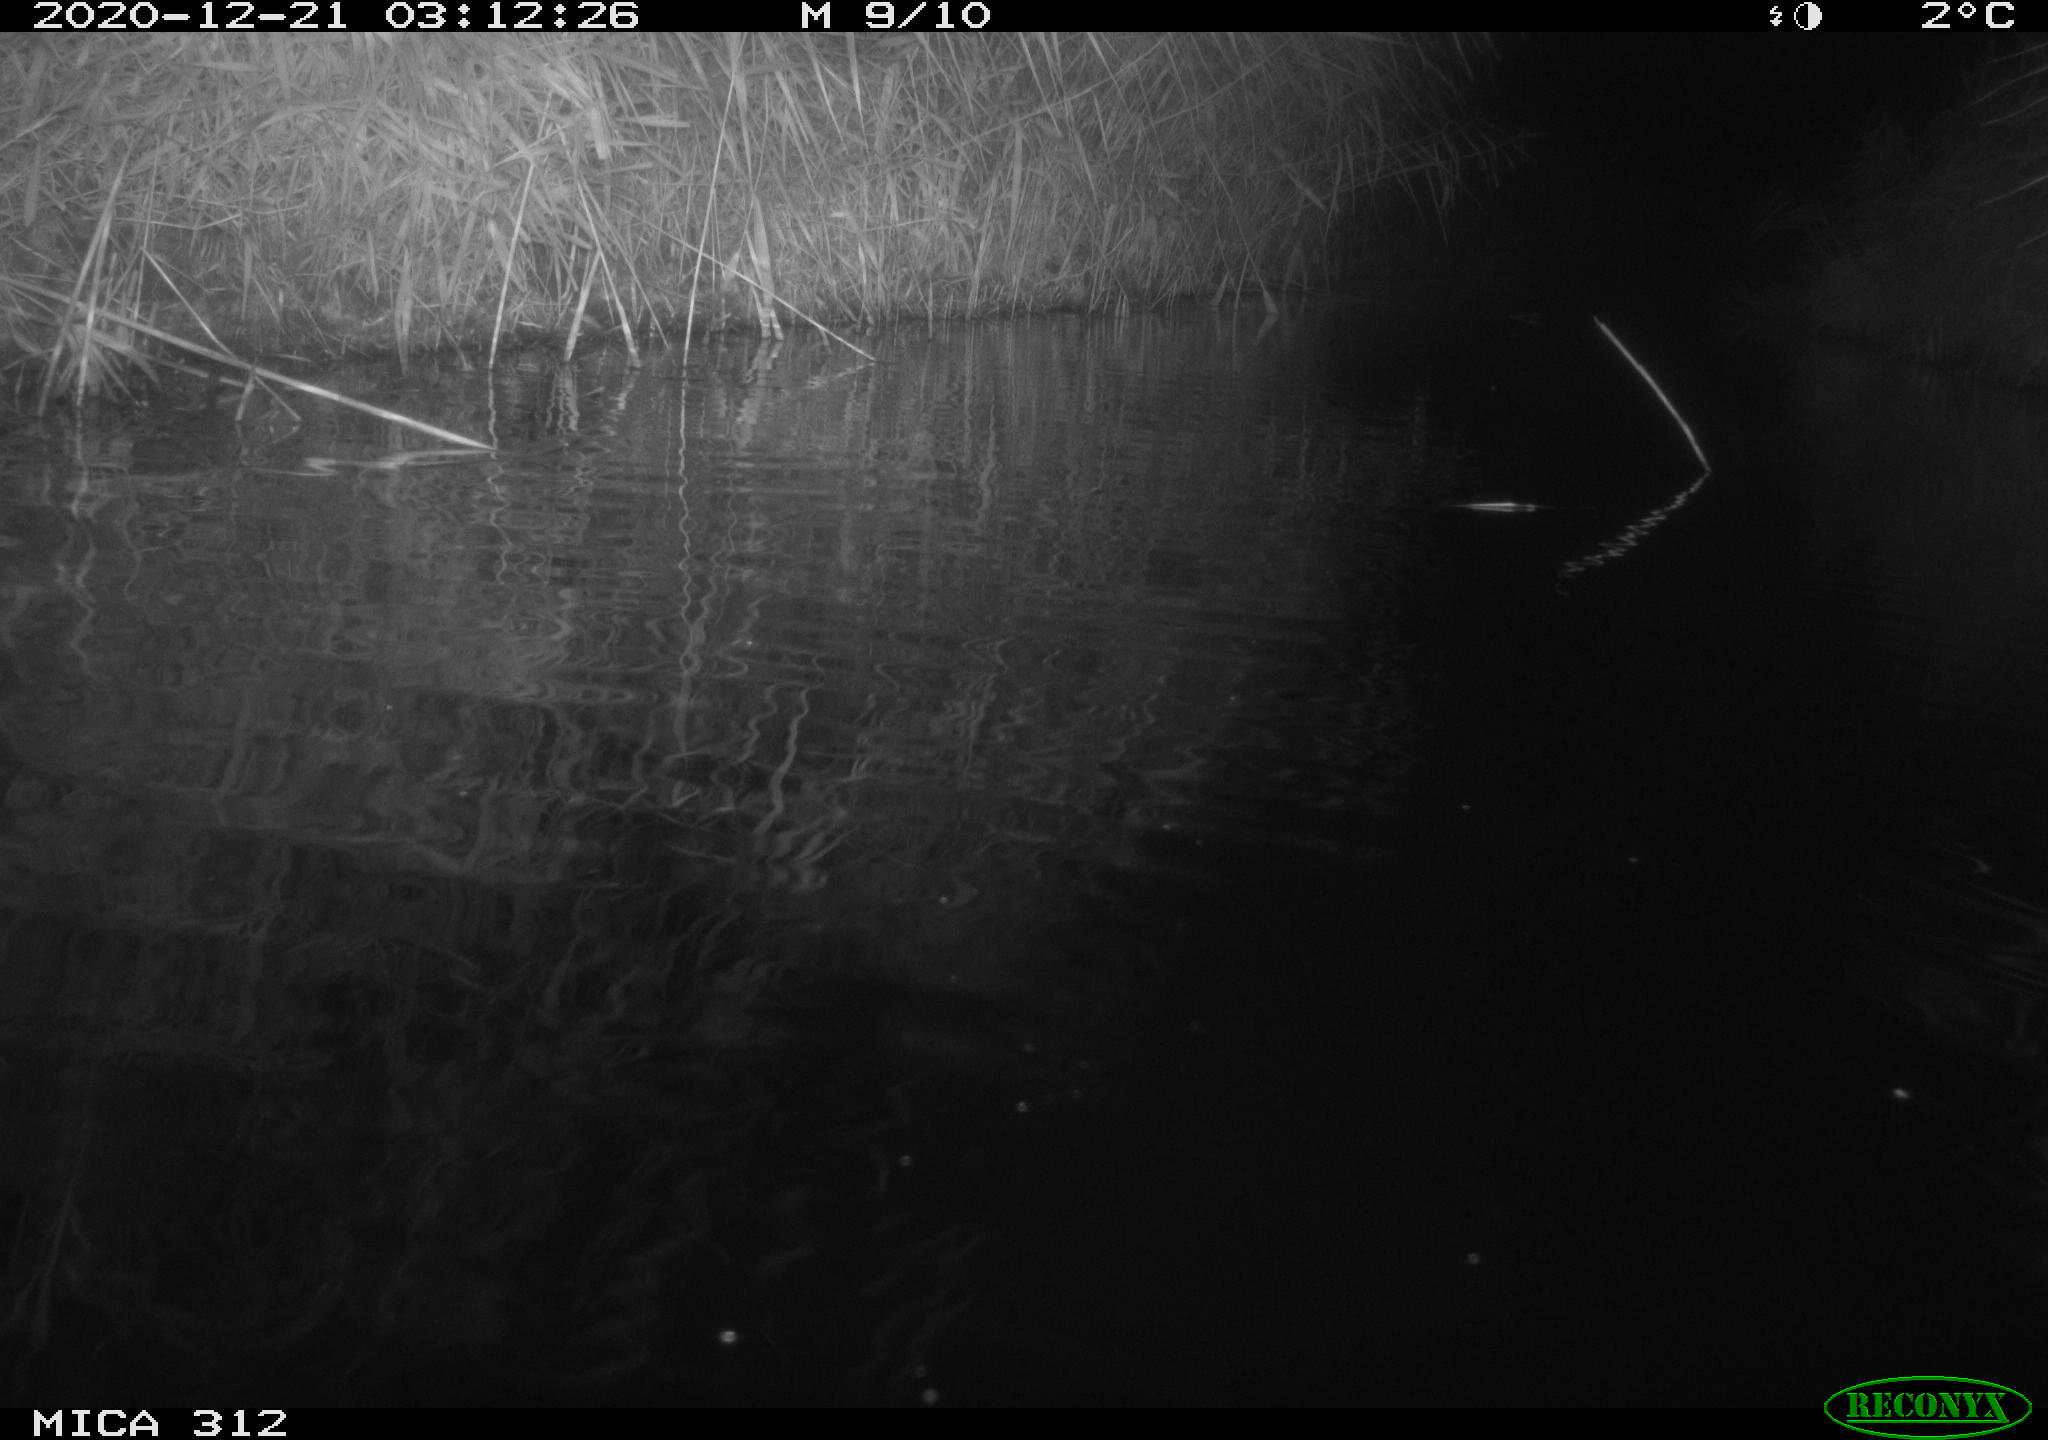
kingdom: Animalia
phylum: Chordata
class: Mammalia
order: Rodentia
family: Muridae
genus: Rattus
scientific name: Rattus norvegicus
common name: Brown rat
